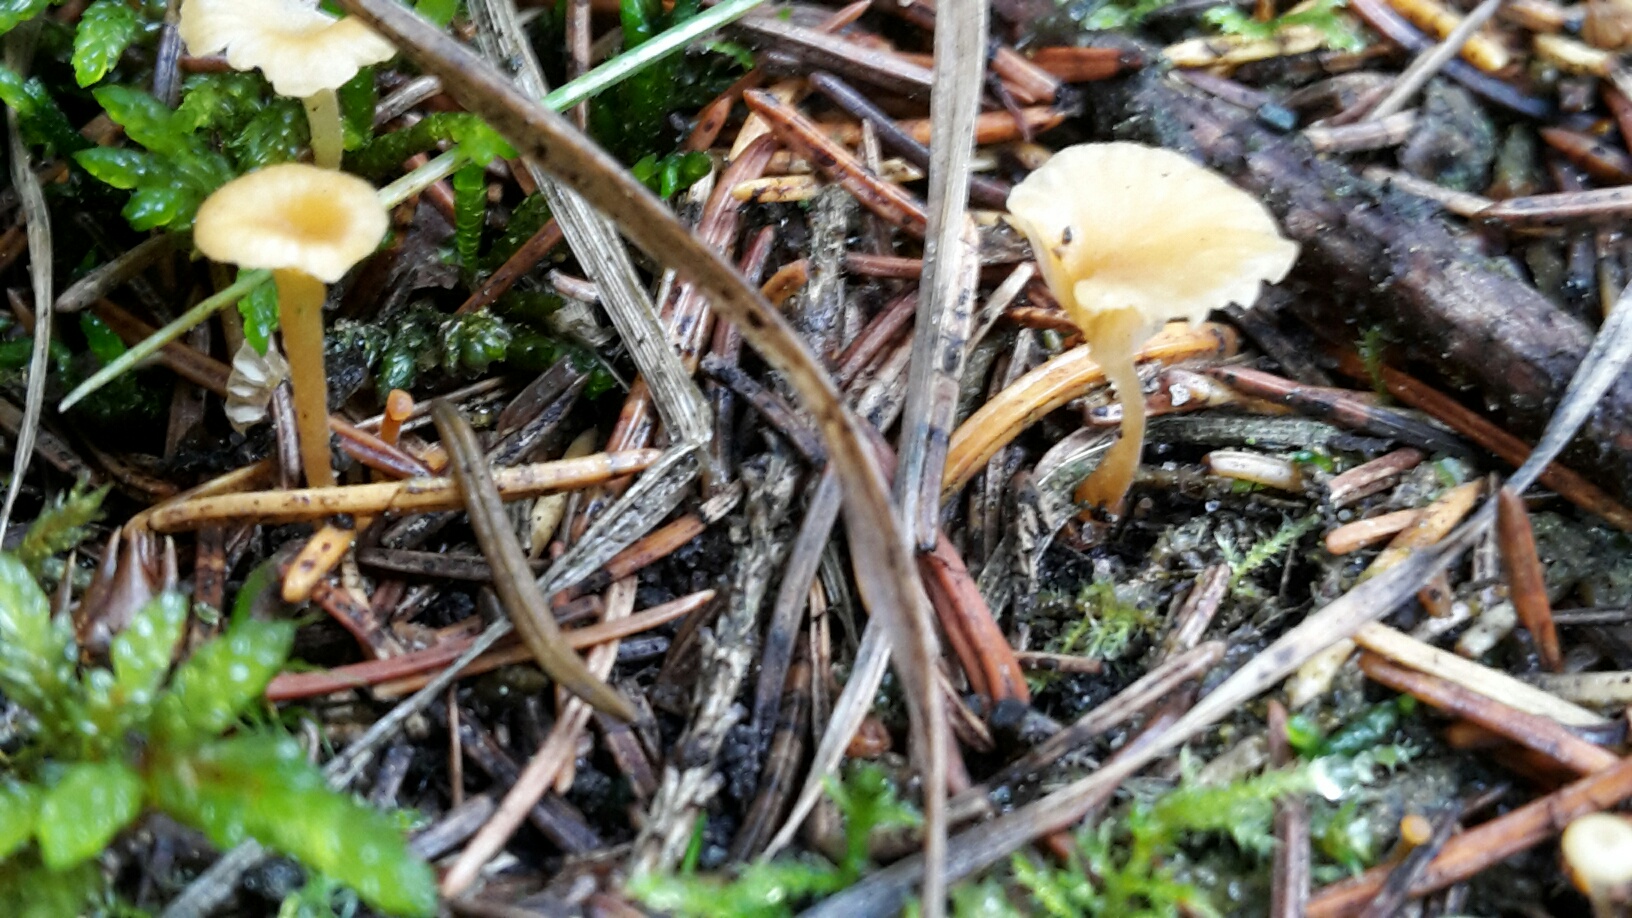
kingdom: Fungi
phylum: Basidiomycota
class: Agaricomycetes
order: Hymenochaetales
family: Rickenellaceae
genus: Rickenella
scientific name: Rickenella fibula
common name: orange mosnavlehat
